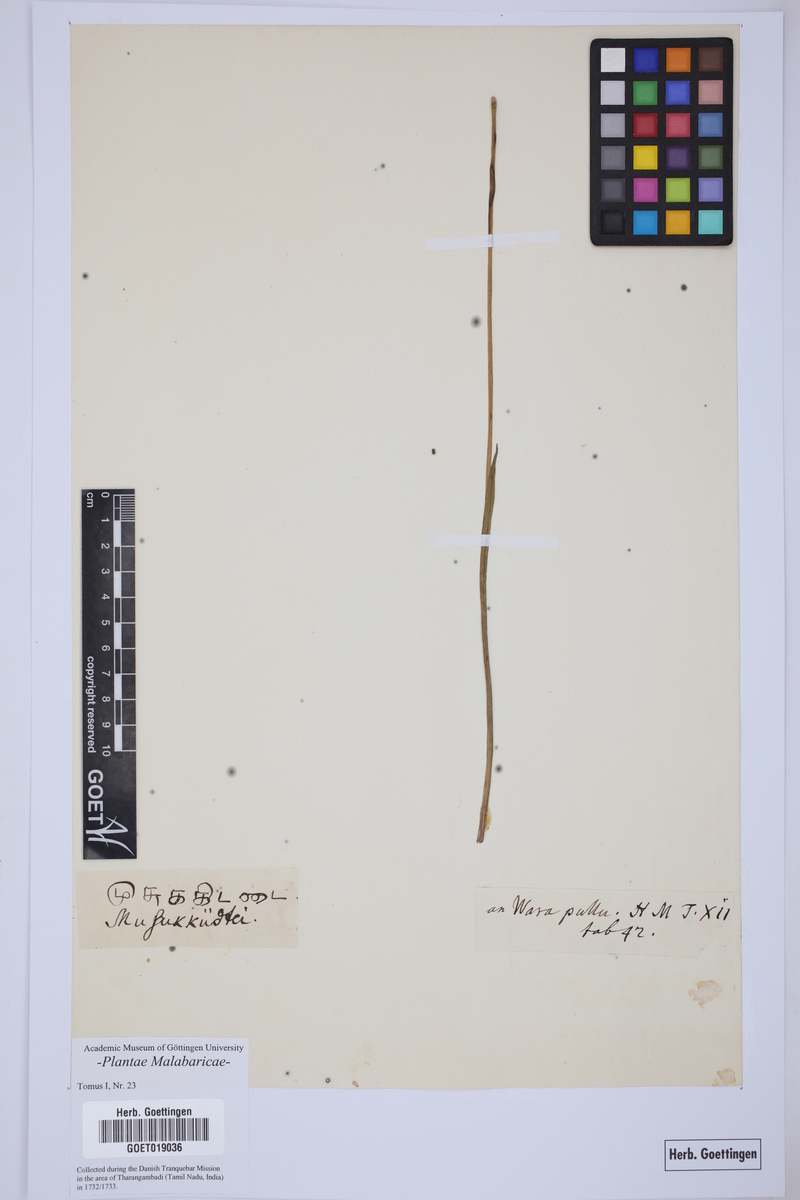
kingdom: Plantae
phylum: Tracheophyta
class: Liliopsida
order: Poales
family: Cyperaceae
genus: Cyperus
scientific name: Cyperus exaltatus
